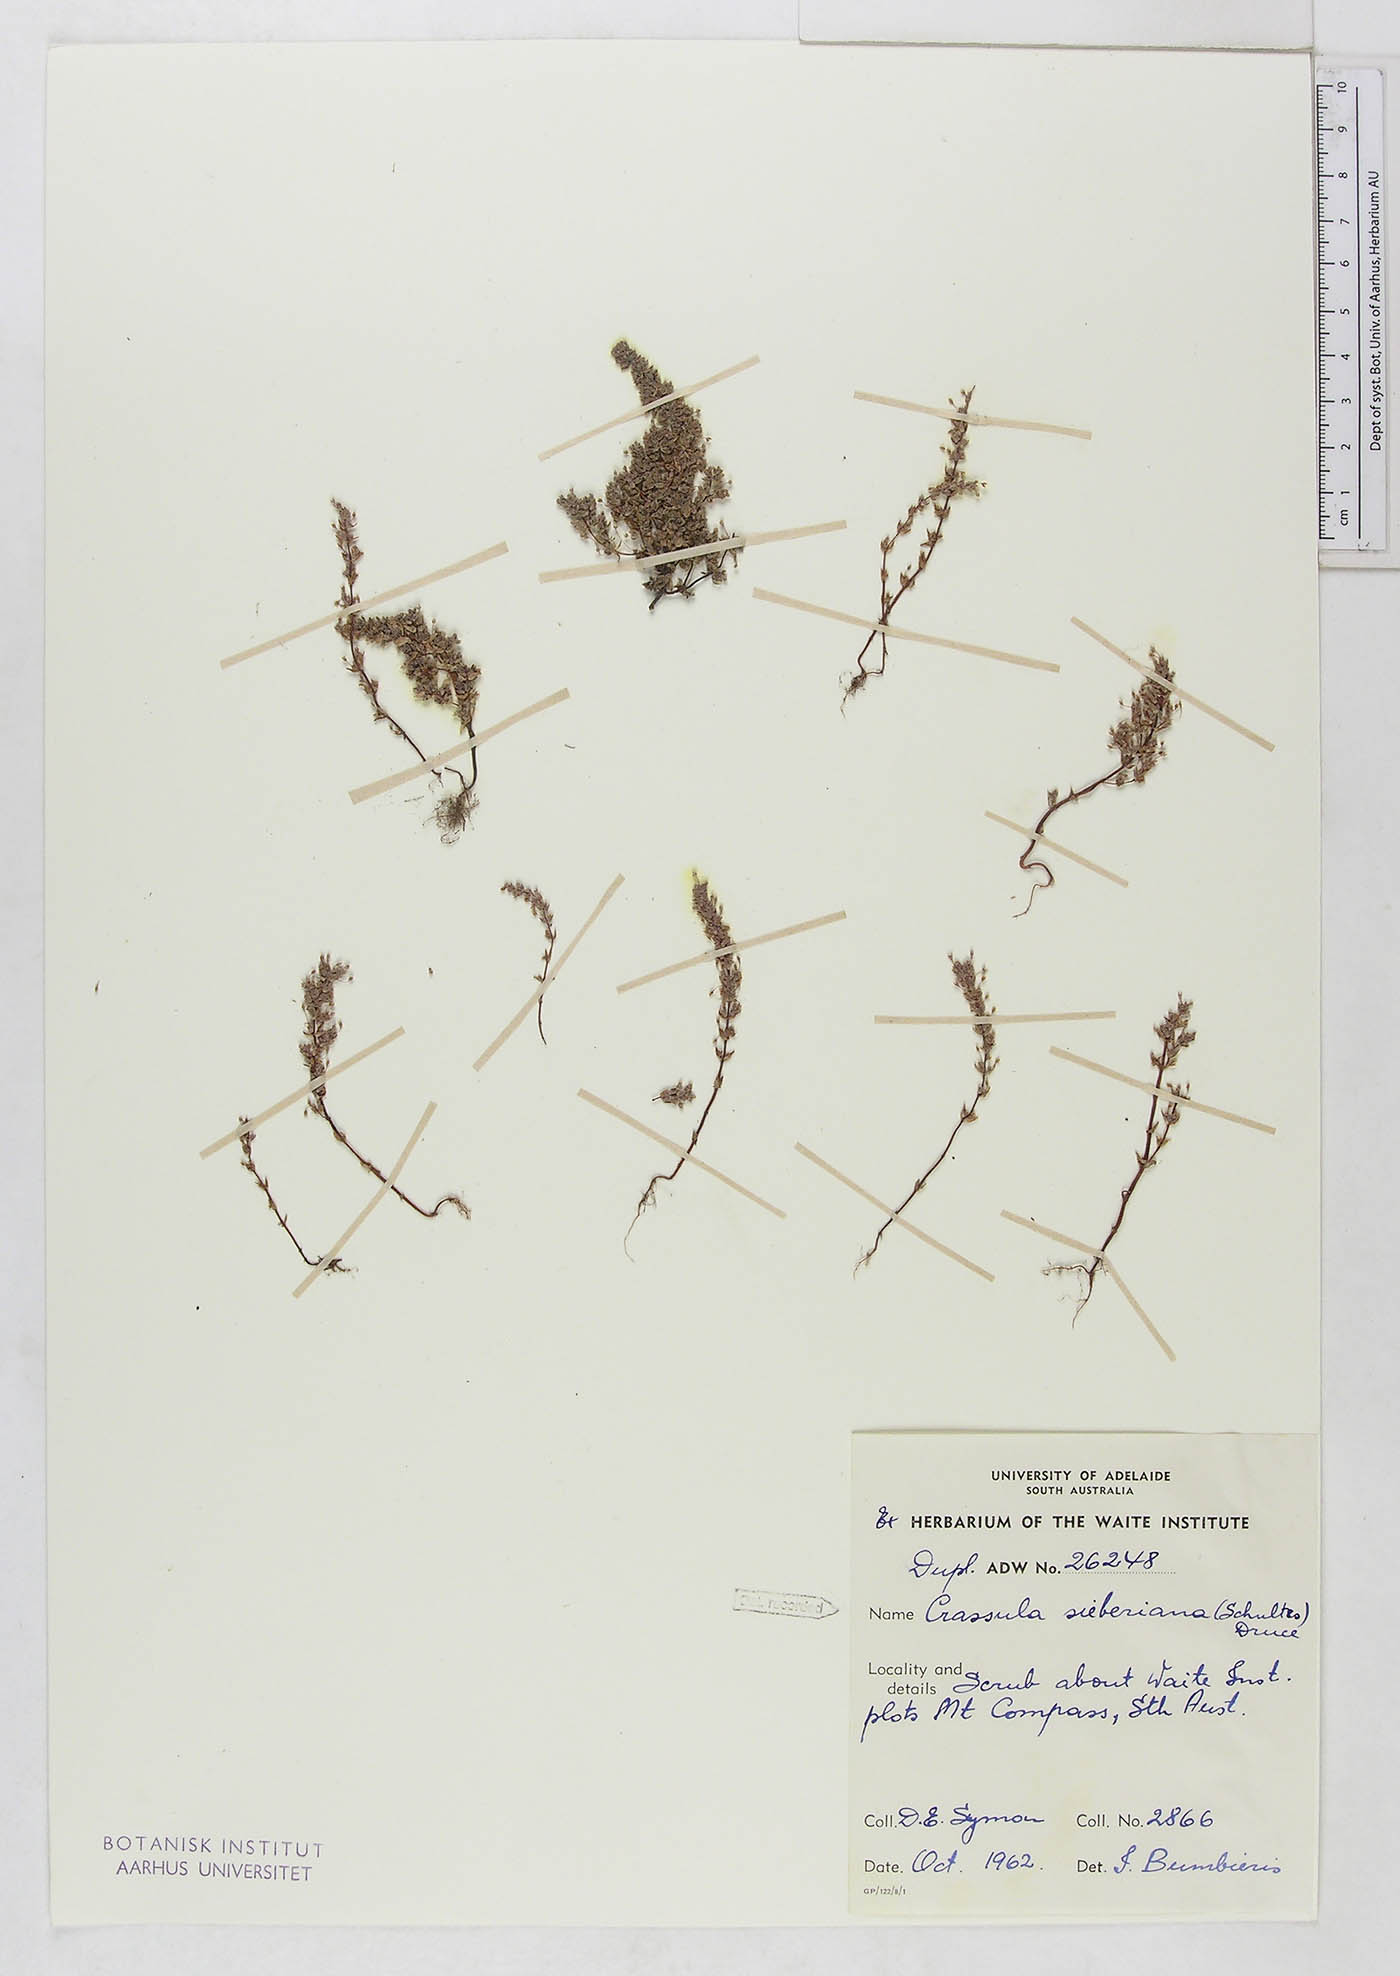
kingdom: Plantae
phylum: Tracheophyta
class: Magnoliopsida
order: Saxifragales
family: Crassulaceae
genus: Crassula
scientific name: Crassula sieberiana
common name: Siberian pygmyweed
